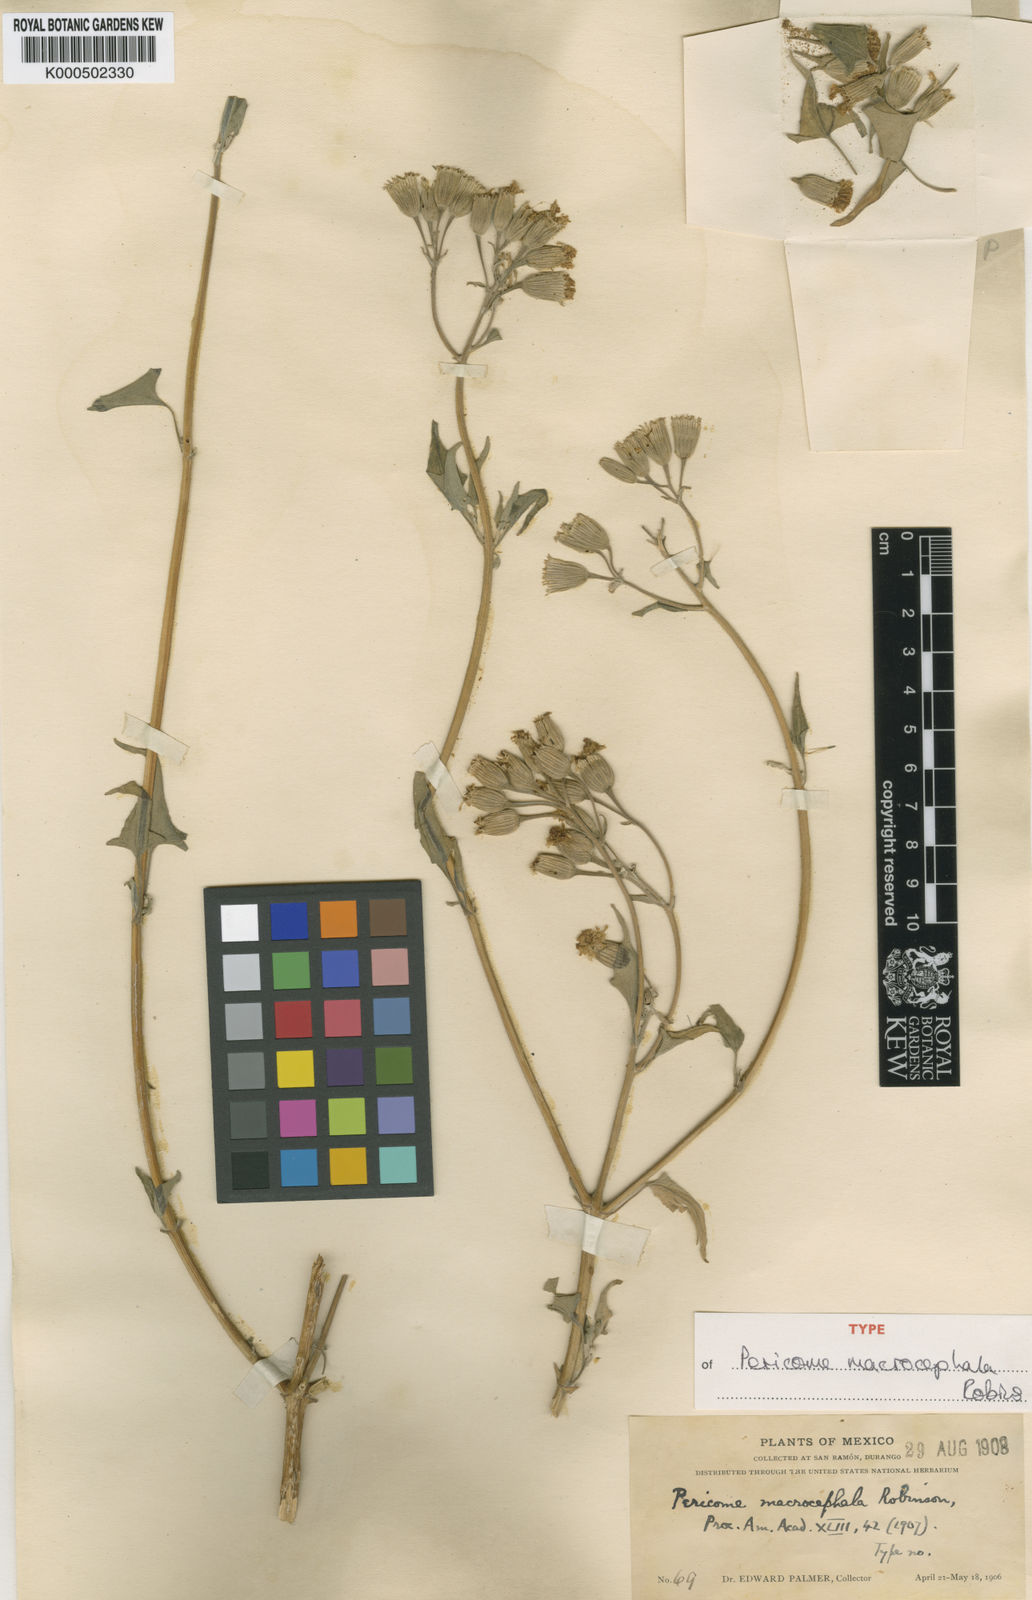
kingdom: Plantae
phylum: Tracheophyta
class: Magnoliopsida
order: Asterales
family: Asteraceae
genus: Pericome
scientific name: Pericome macrocephala
